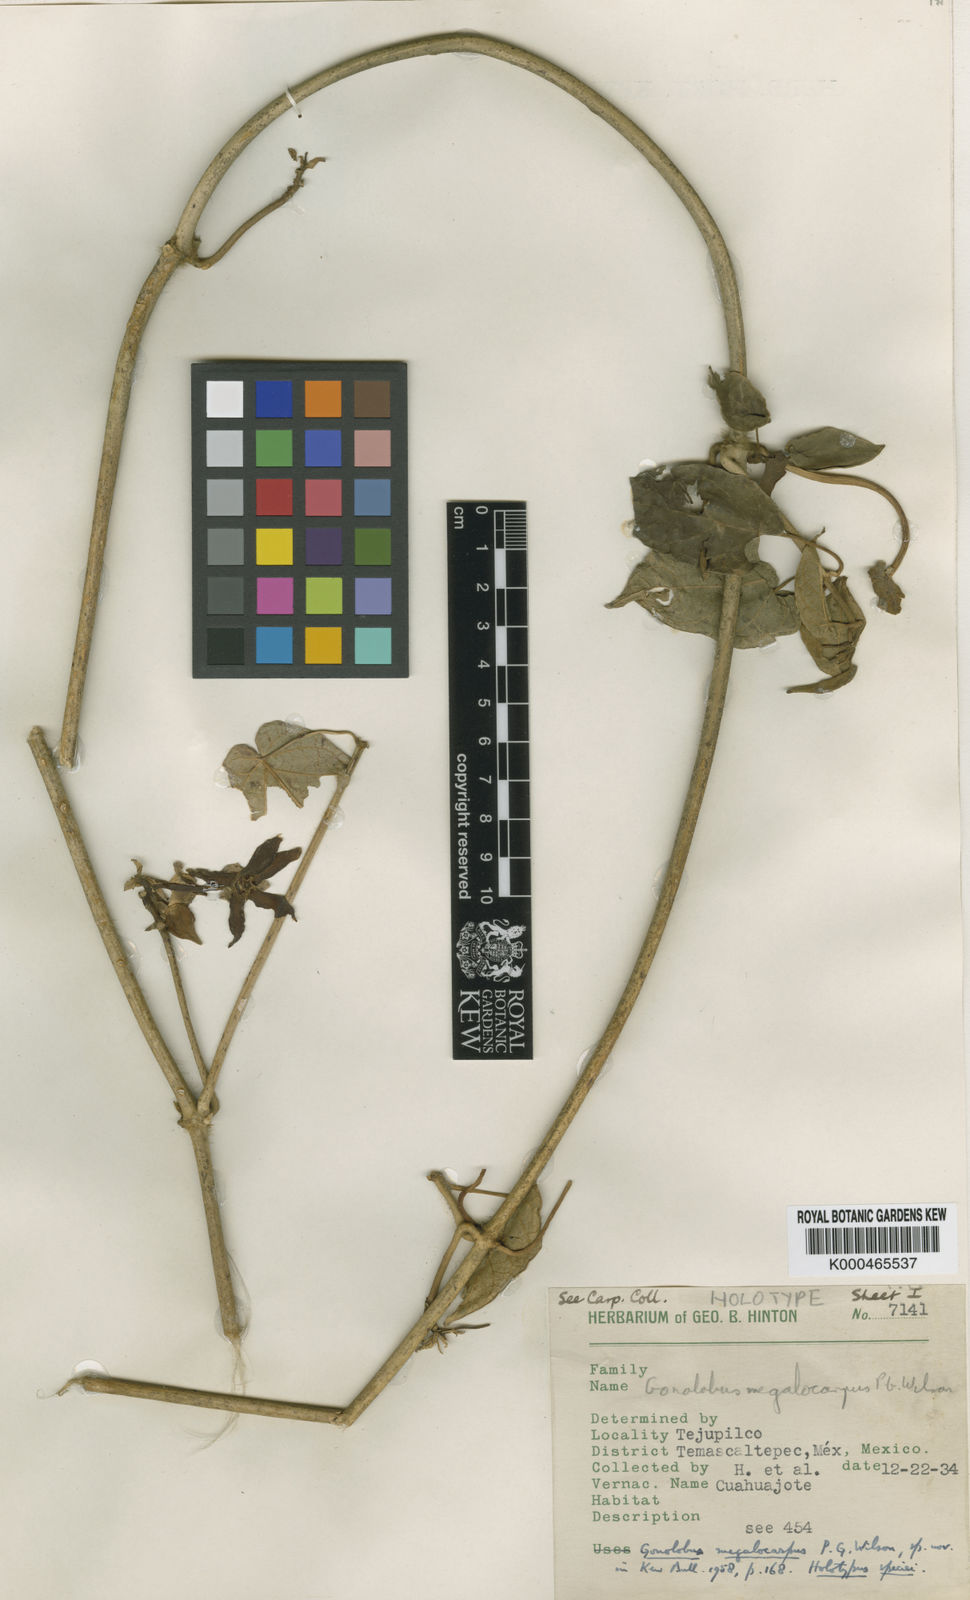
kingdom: Plantae
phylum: Tracheophyta
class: Magnoliopsida
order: Gentianales
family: Apocynaceae
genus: Gonolobus
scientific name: Gonolobus
